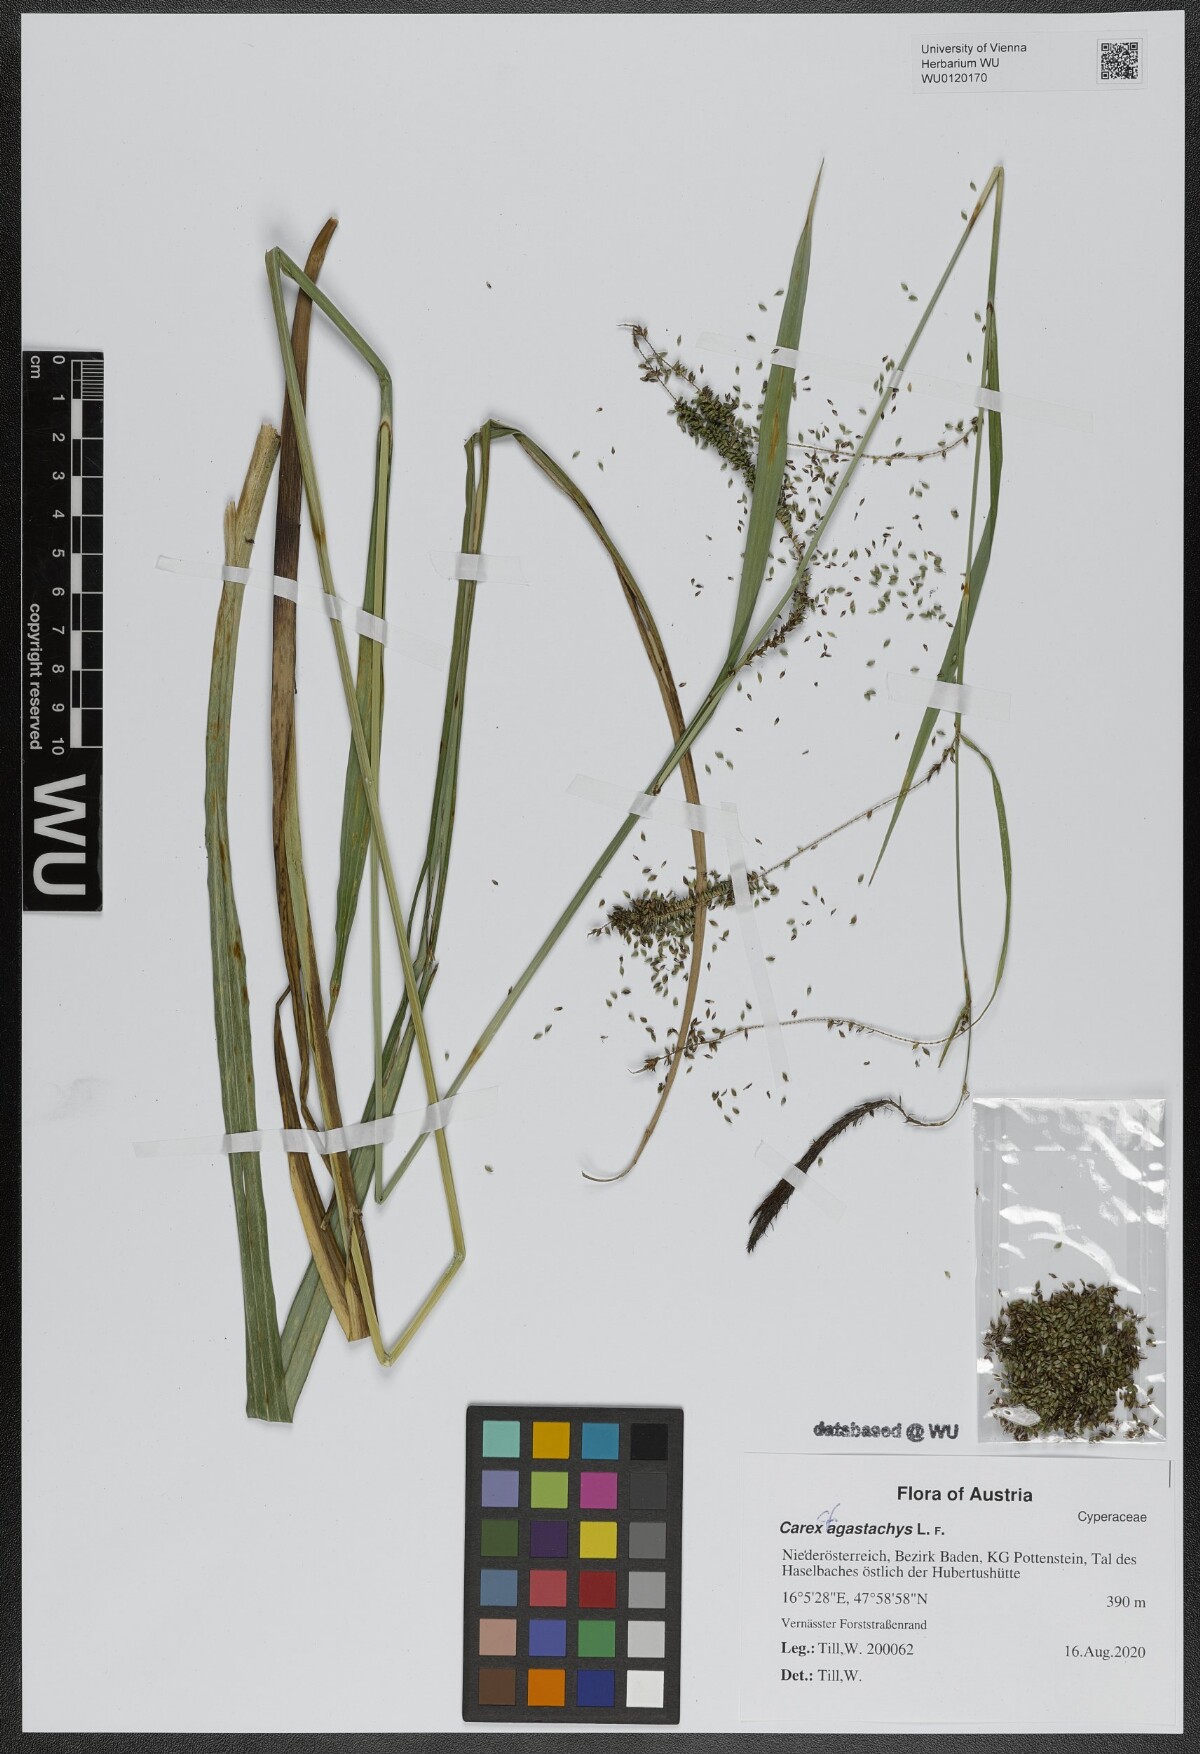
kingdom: Plantae
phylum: Tracheophyta
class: Liliopsida
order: Poales
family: Cyperaceae
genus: Carex
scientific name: Carex agastachys
